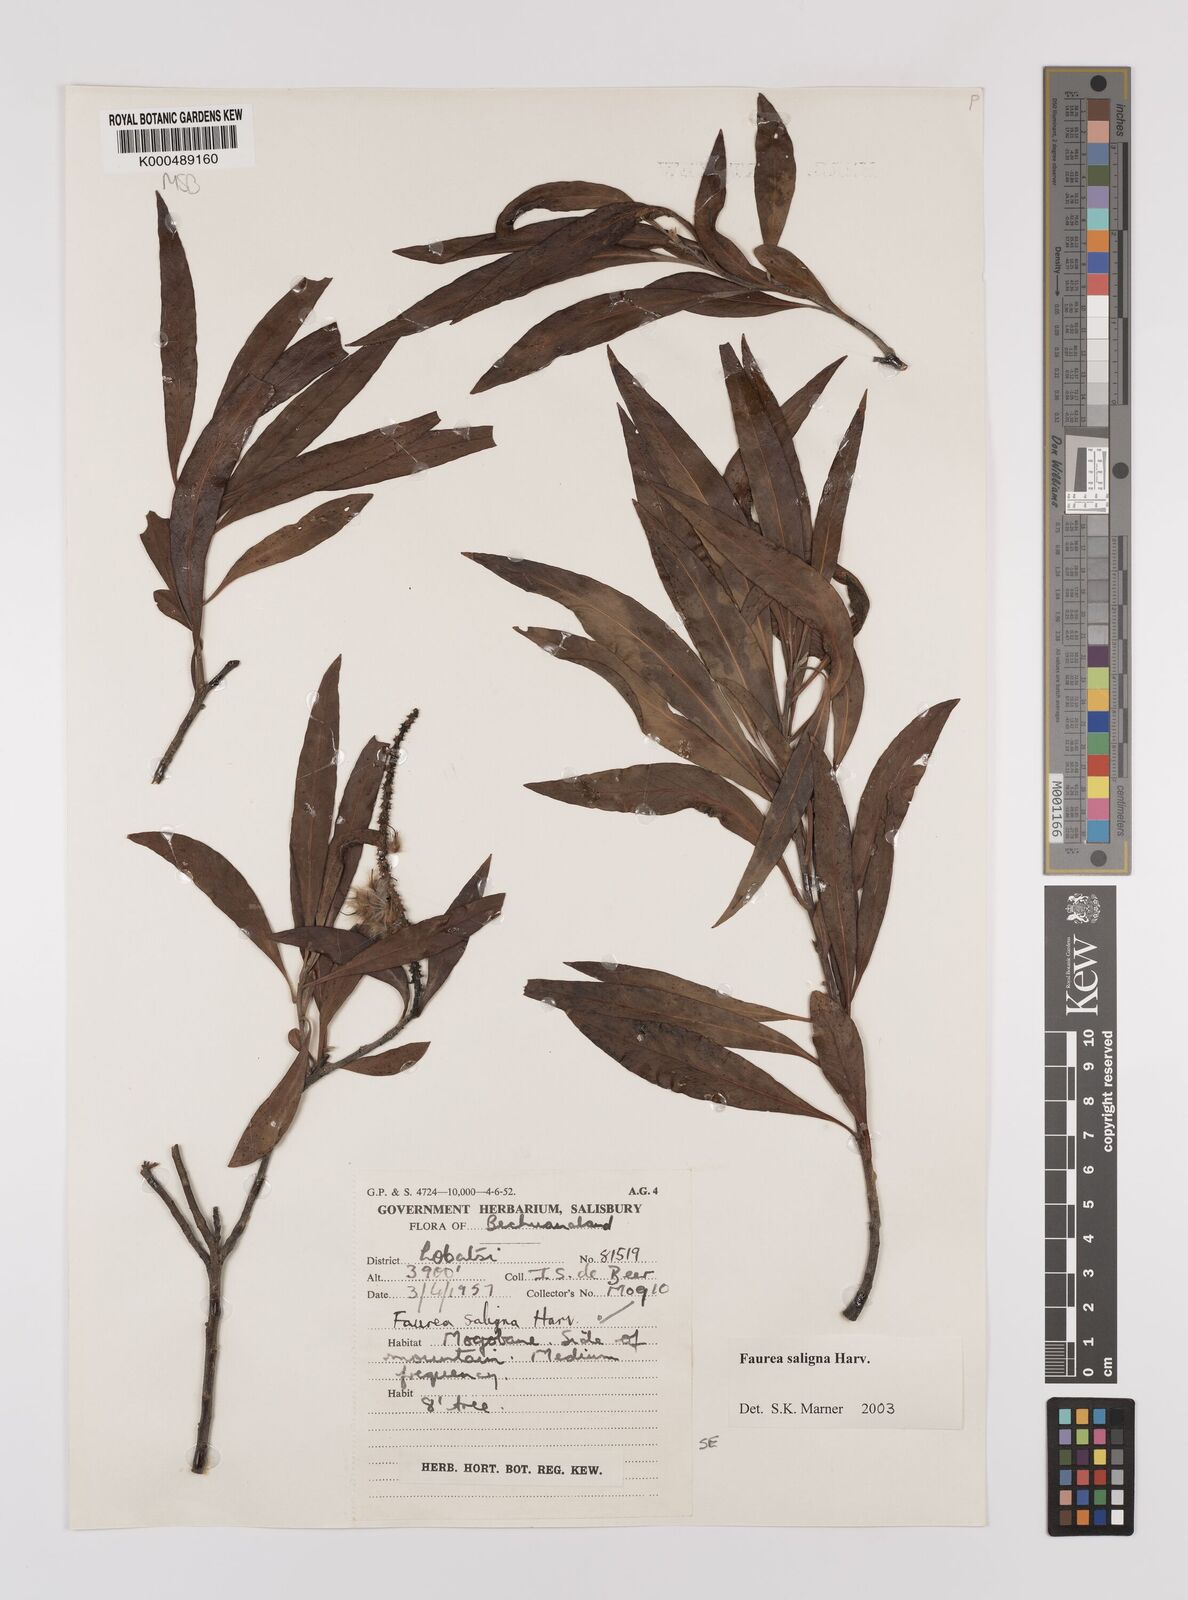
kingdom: Plantae
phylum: Tracheophyta
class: Magnoliopsida
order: Proteales
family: Proteaceae
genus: Faurea
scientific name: Faurea saligna
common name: African bean
